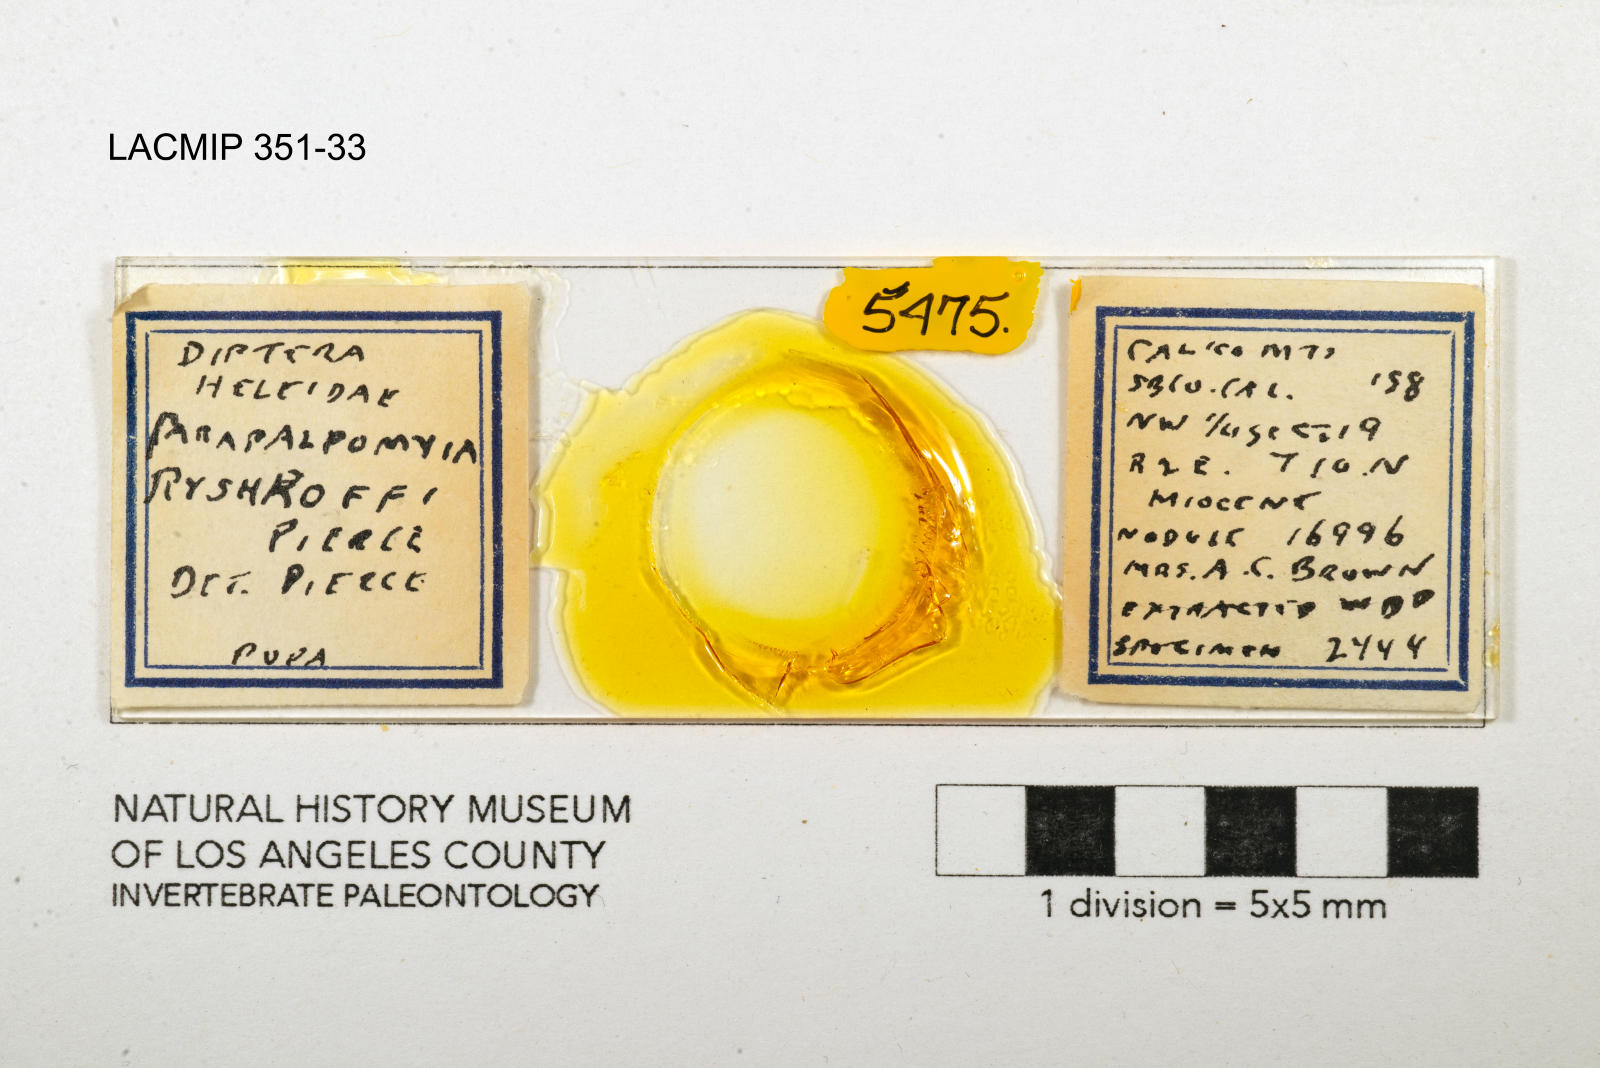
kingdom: Animalia
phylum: Arthropoda
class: Insecta
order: Diptera
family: Ceratopogonidae
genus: Palpomyia
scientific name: Palpomyia ryshkoffi
